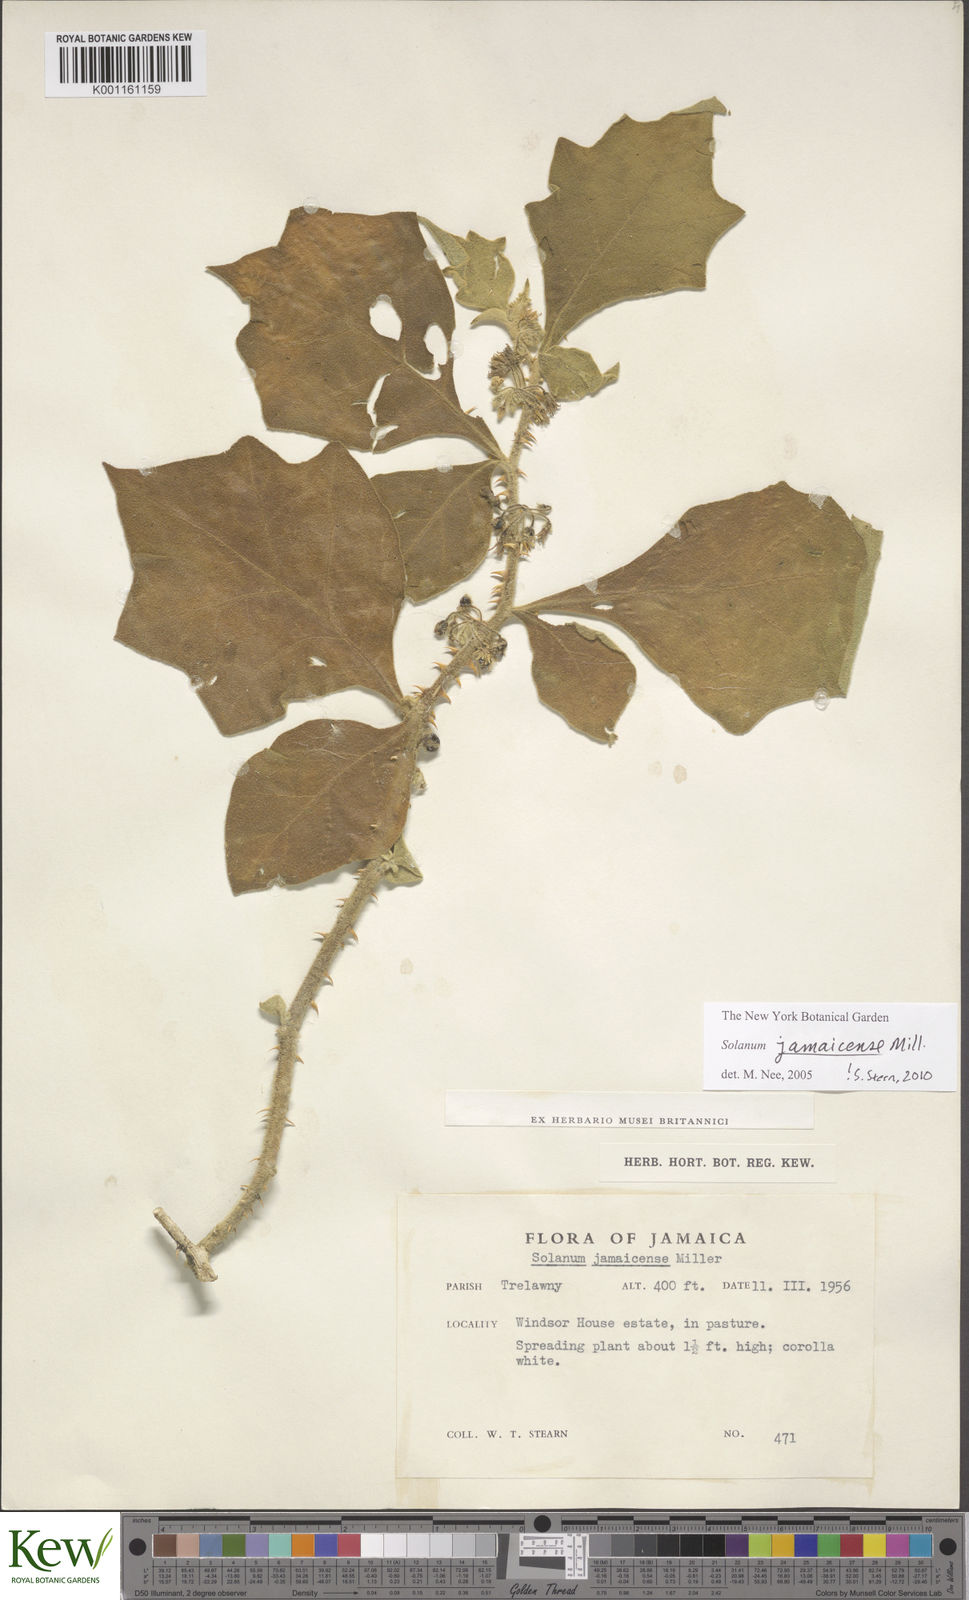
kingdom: Plantae
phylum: Tracheophyta
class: Magnoliopsida
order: Solanales
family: Solanaceae
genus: Solanum
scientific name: Solanum jamaicense
